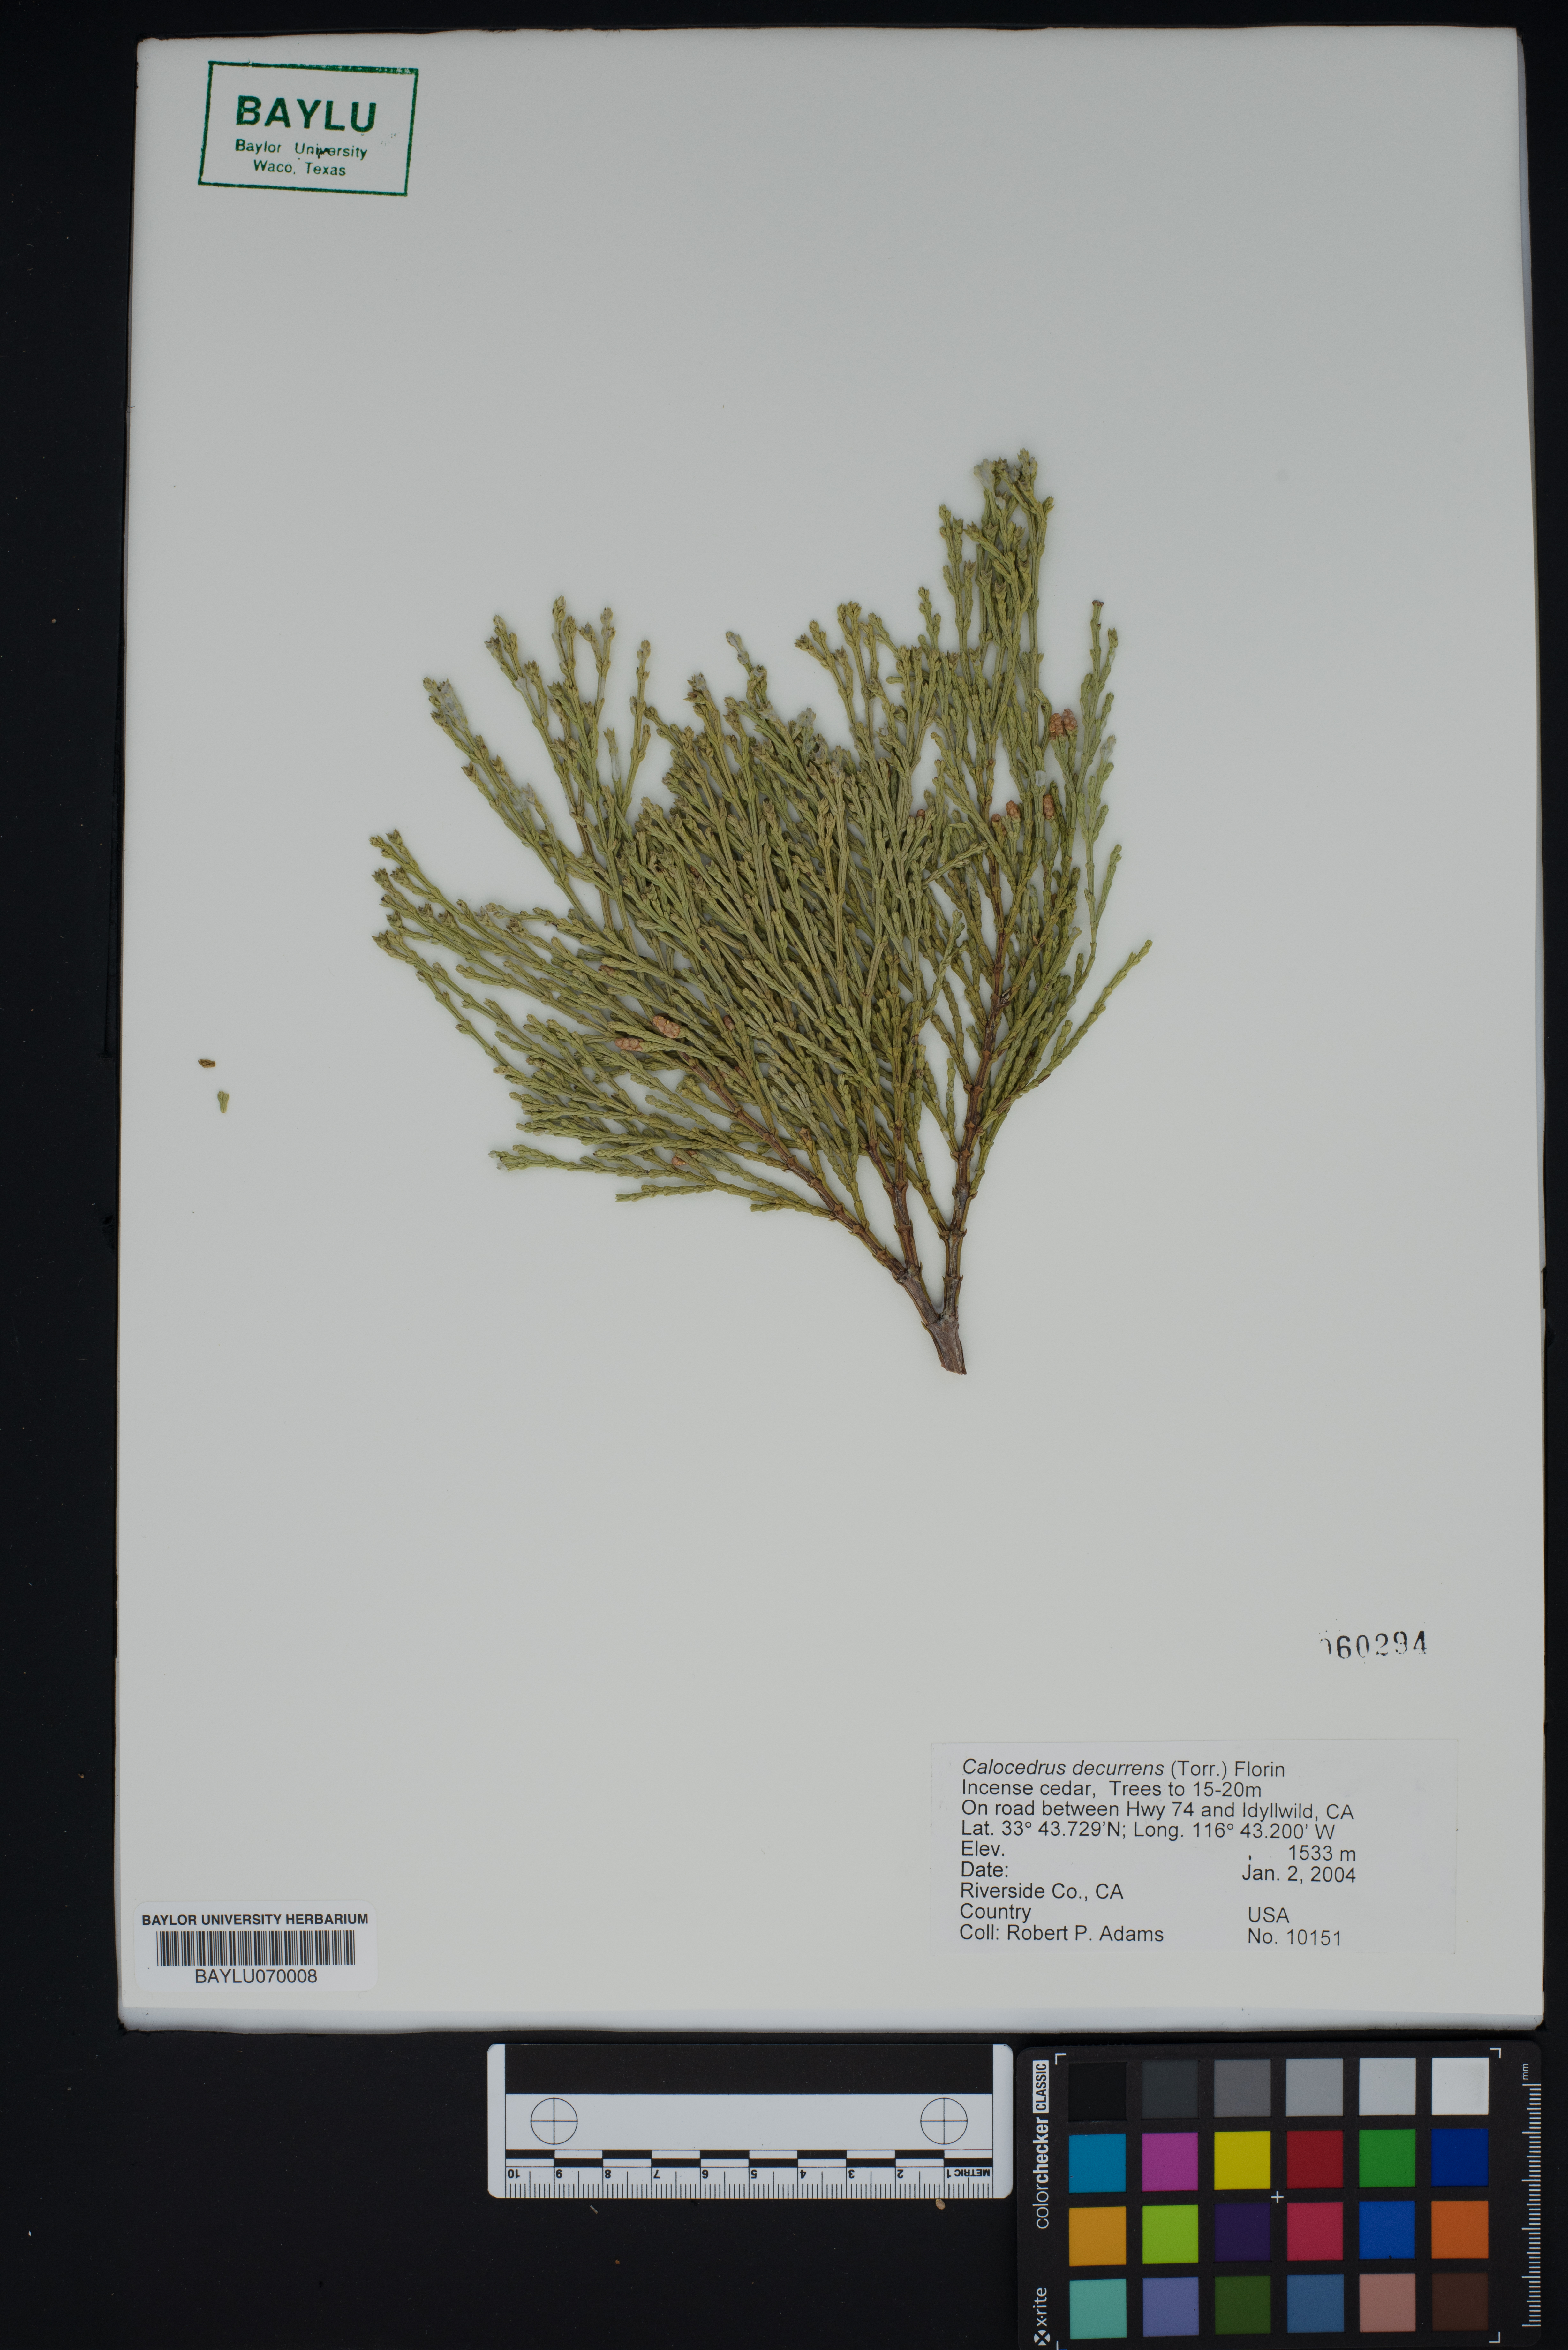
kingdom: Plantae
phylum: Tracheophyta
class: Pinopsida
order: Pinales
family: Cupressaceae
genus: Calocedrus
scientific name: Calocedrus decurrens
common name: Californian incense-cedar
